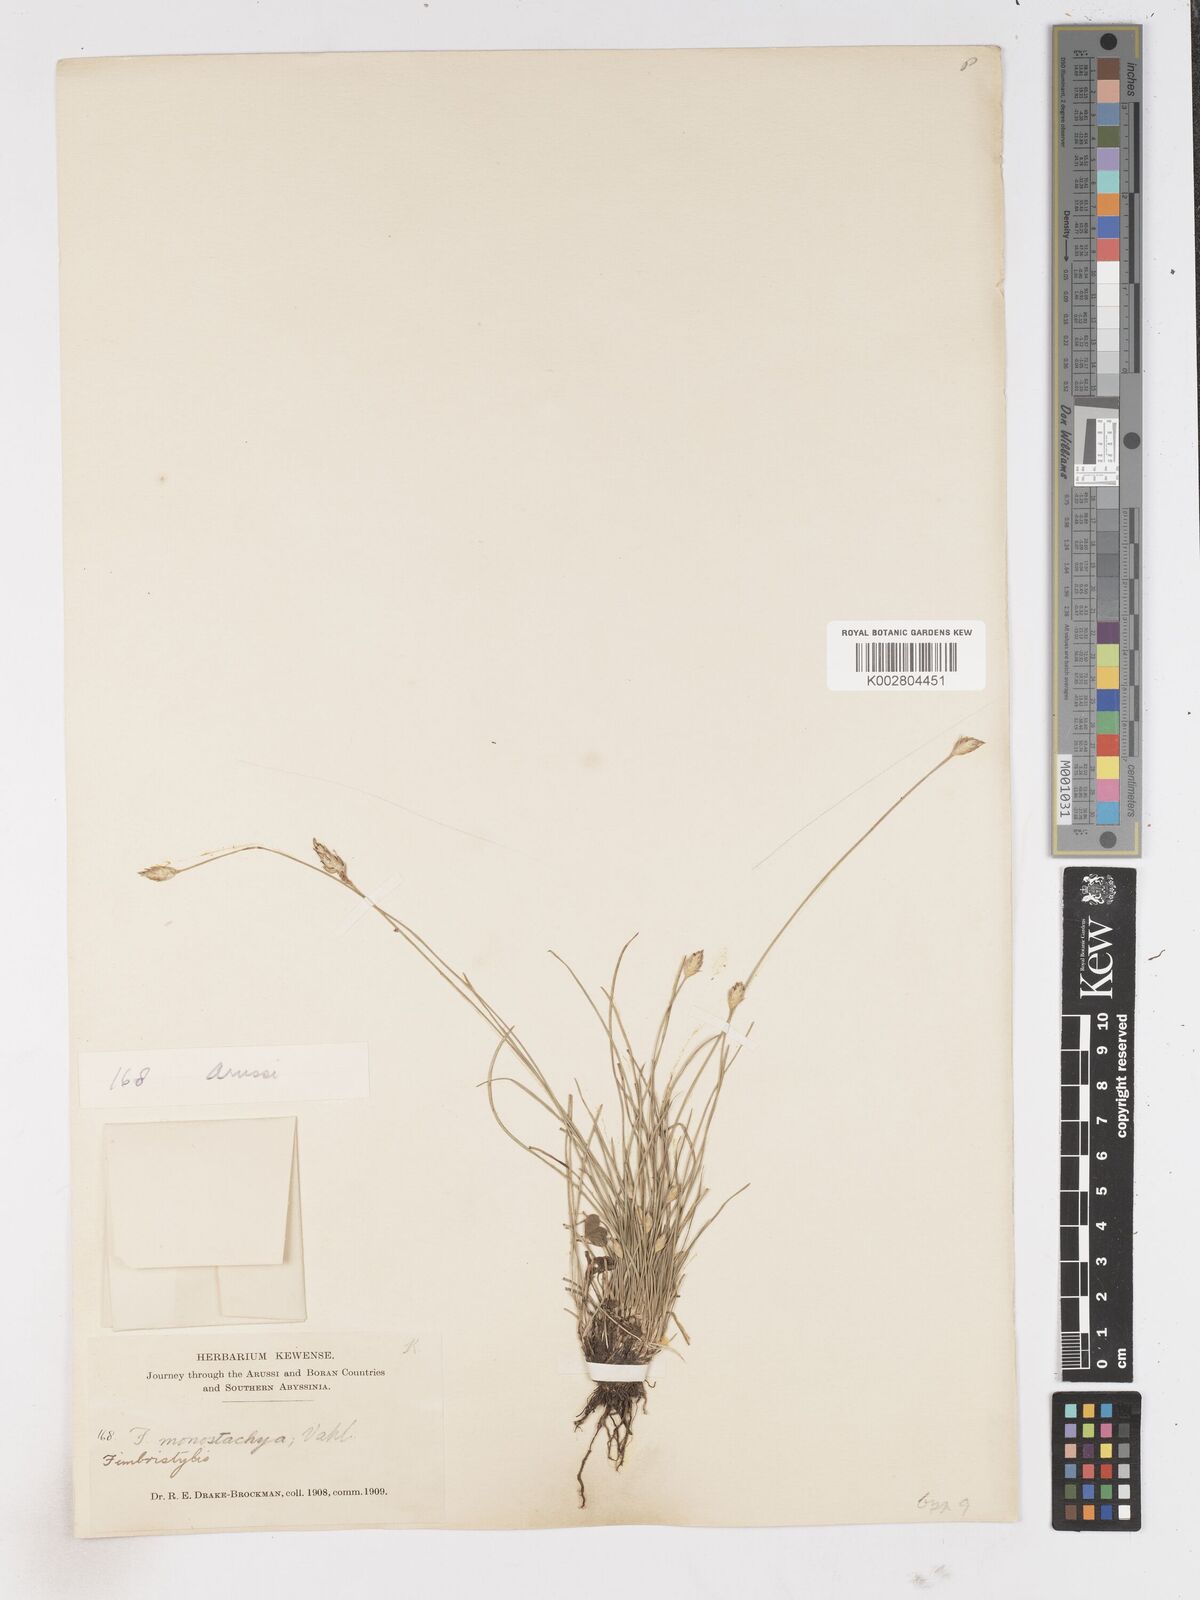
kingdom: Plantae
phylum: Tracheophyta
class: Liliopsida
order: Poales
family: Cyperaceae
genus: Abildgaardia
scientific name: Abildgaardia ovata
